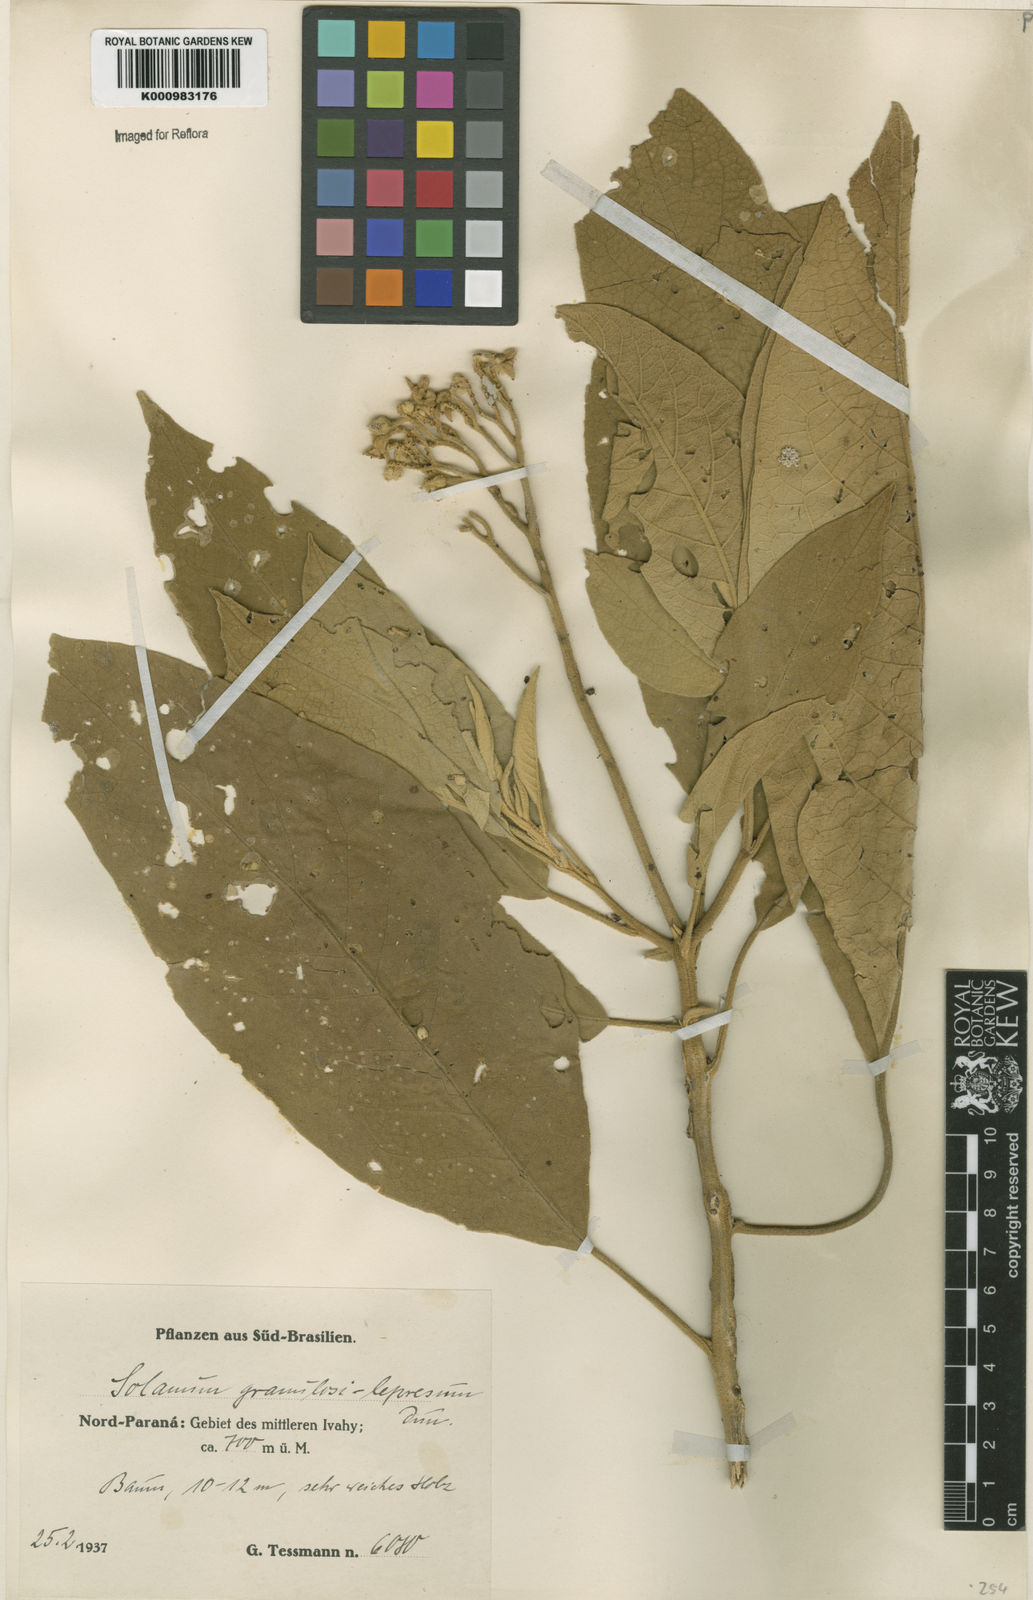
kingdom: Plantae
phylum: Tracheophyta
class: Magnoliopsida
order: Solanales
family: Solanaceae
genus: Solanum
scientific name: Solanum granulosoleprosum
